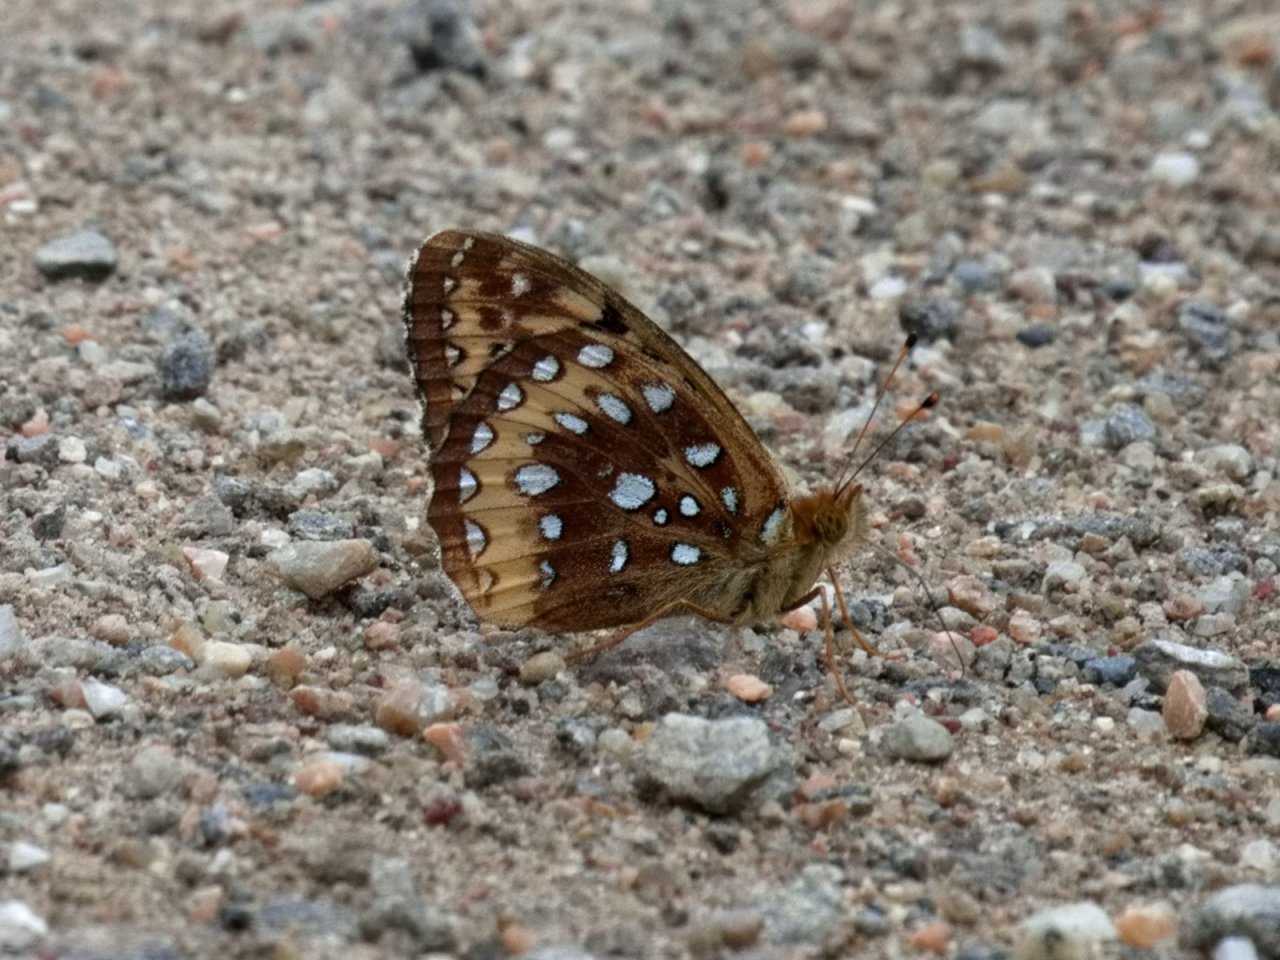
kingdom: Animalia
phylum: Arthropoda
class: Insecta
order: Lepidoptera
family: Nymphalidae
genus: Speyeria
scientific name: Speyeria cybele
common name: Great Spangled Fritillary
